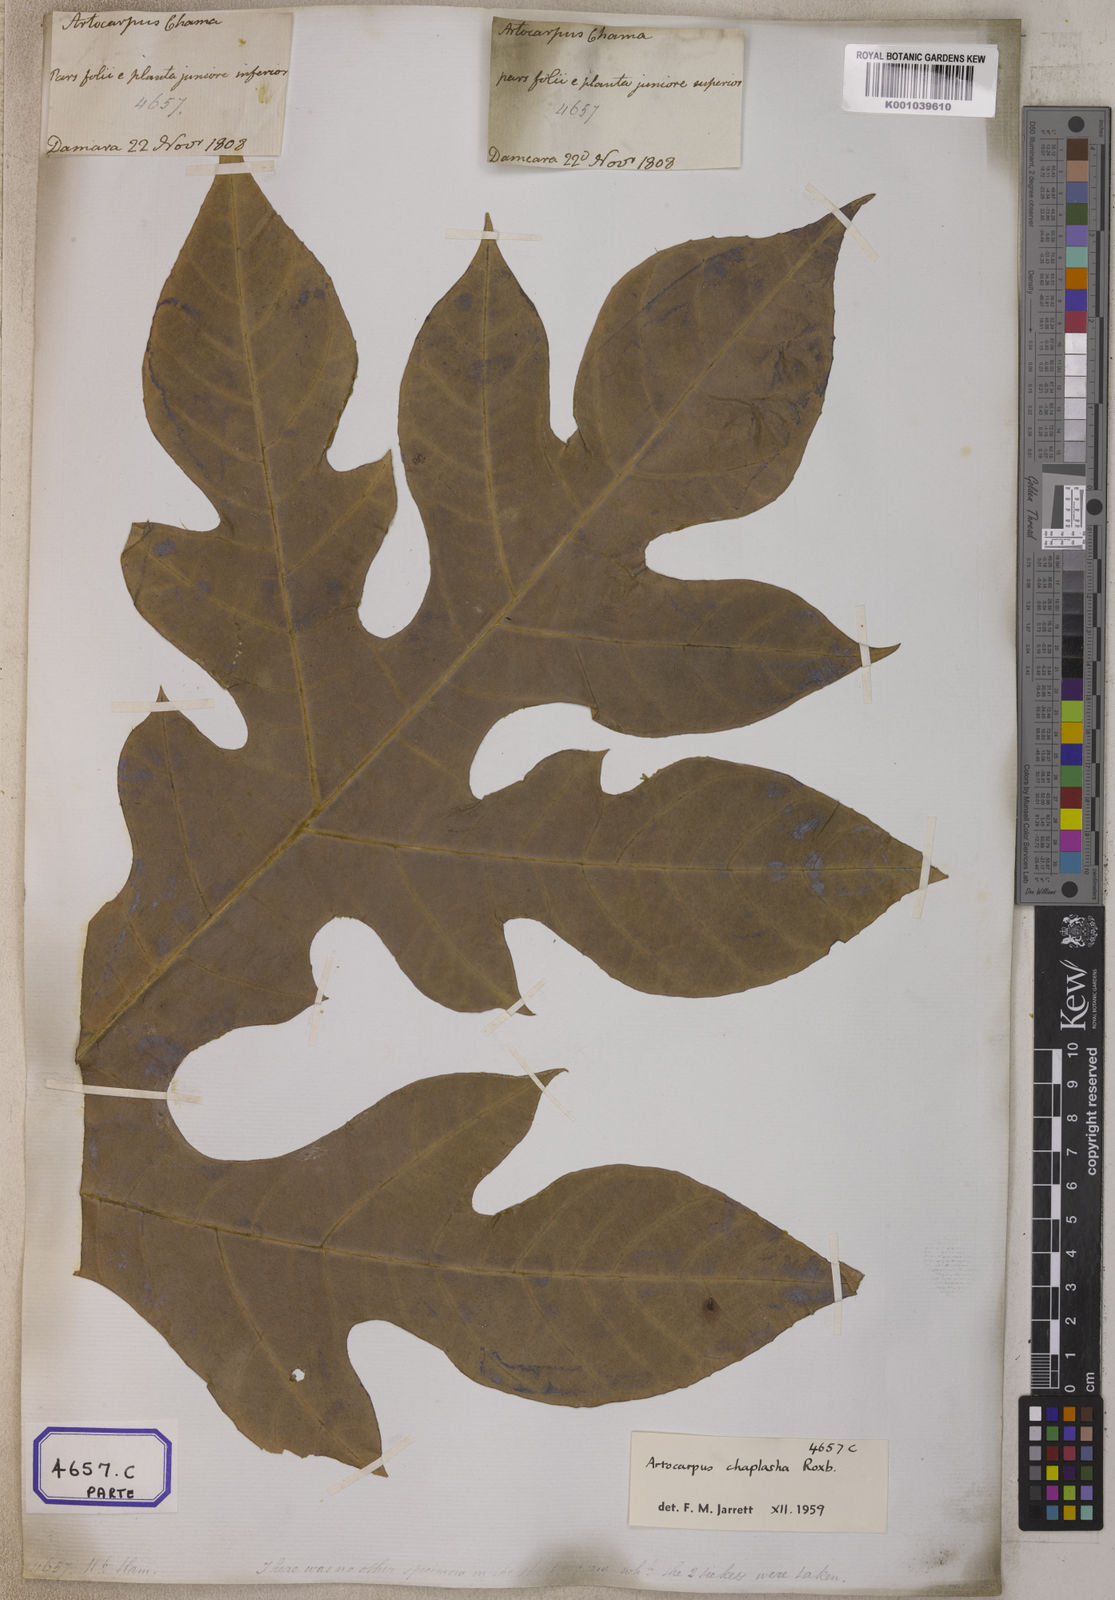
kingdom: Plantae
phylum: Tracheophyta
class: Magnoliopsida
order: Rosales
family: Moraceae
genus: Artocarpus
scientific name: Artocarpus chama
